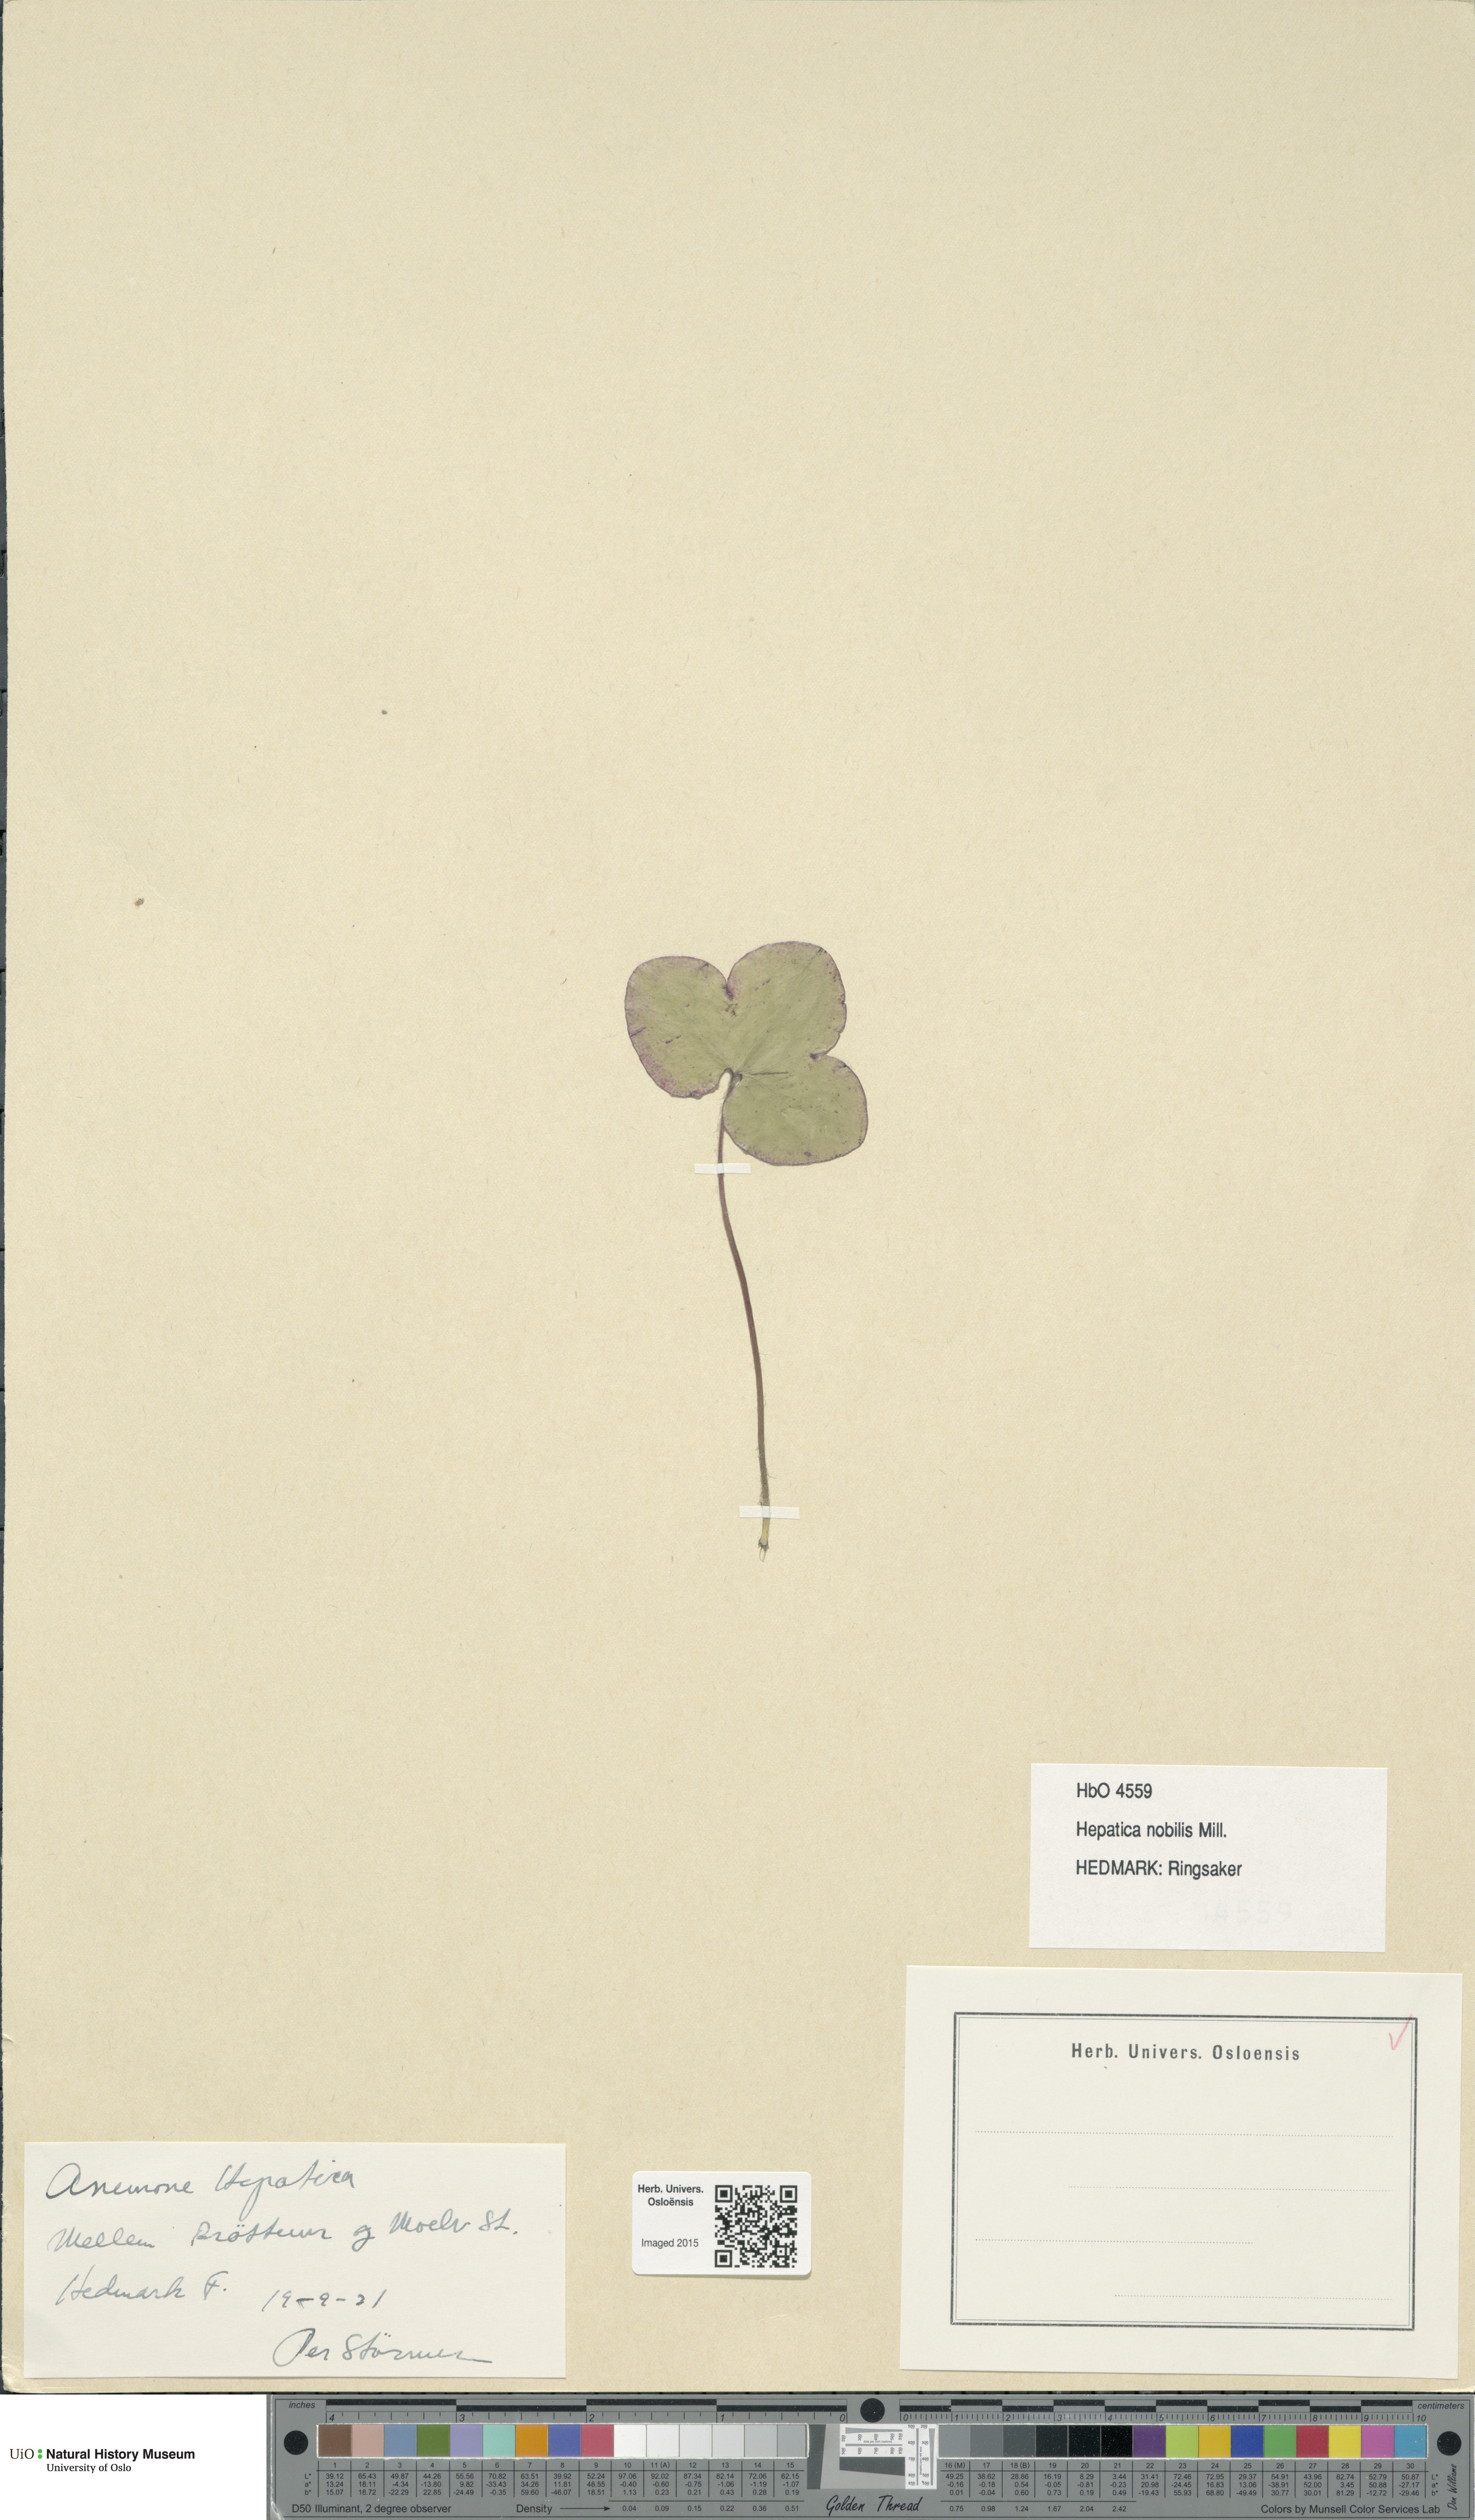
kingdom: Plantae
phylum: Tracheophyta
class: Magnoliopsida
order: Ranunculales
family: Ranunculaceae
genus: Hepatica
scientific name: Hepatica nobilis
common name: Liverleaf
